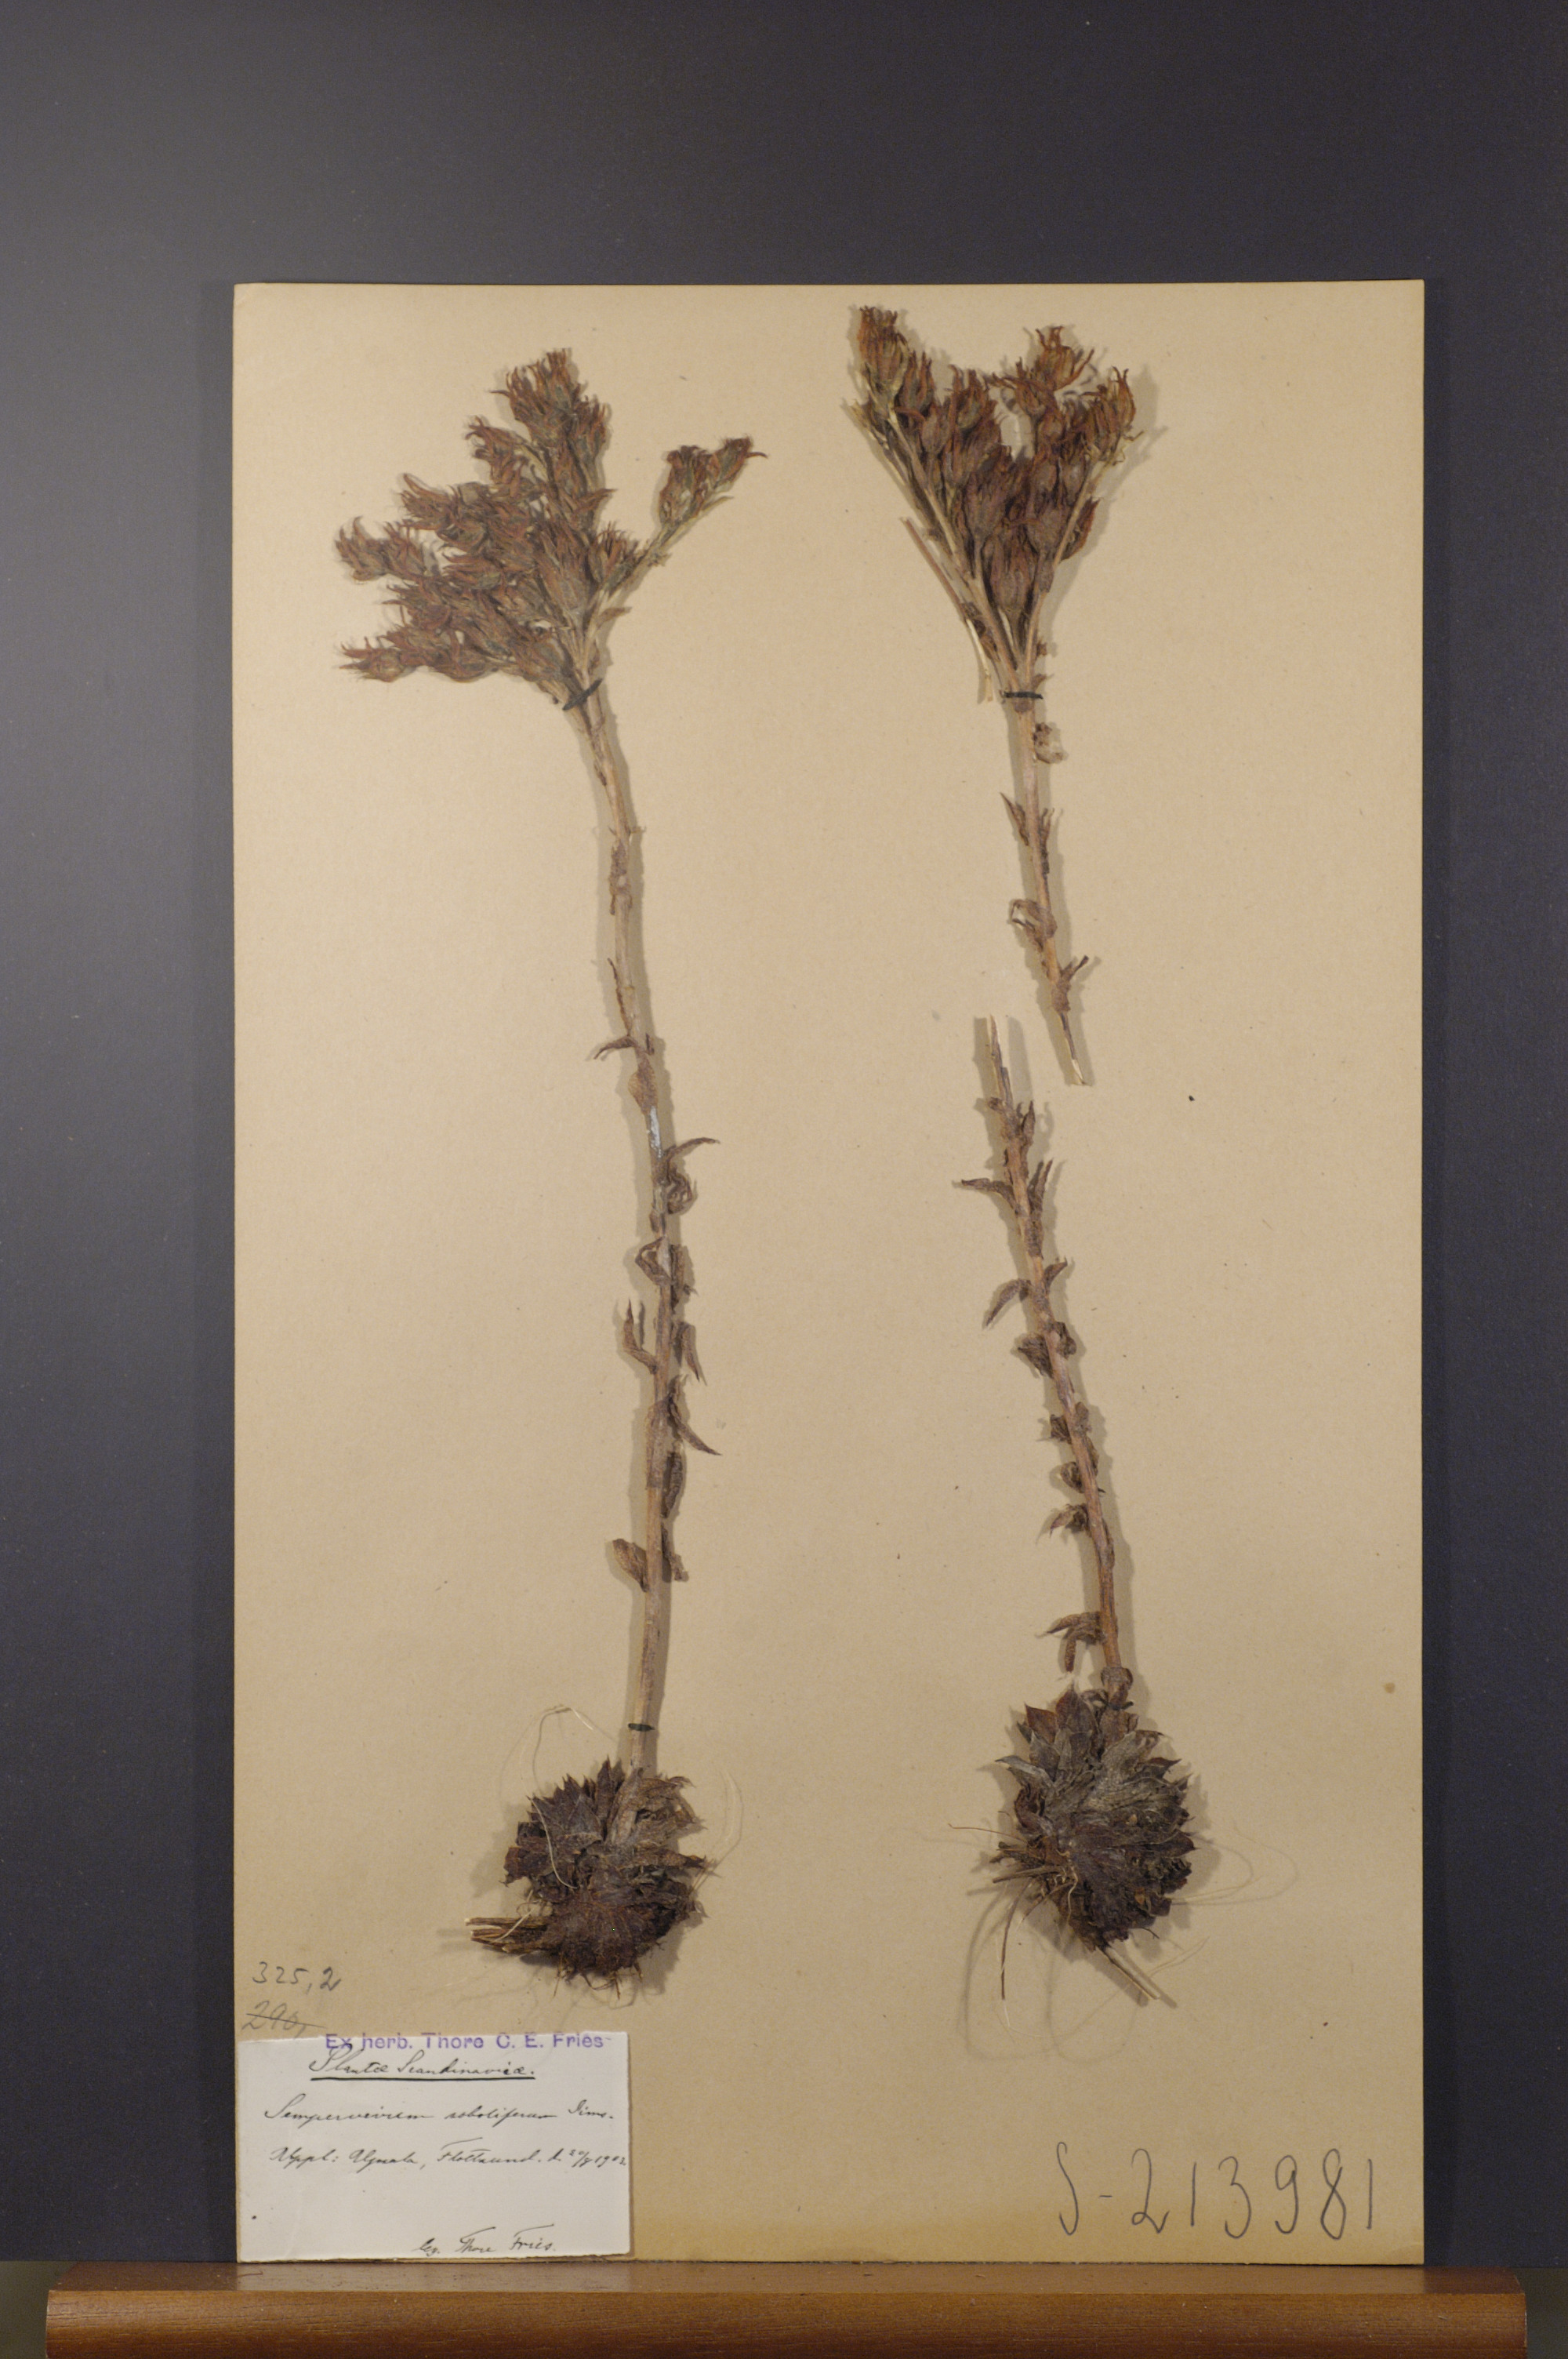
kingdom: Plantae
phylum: Tracheophyta
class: Magnoliopsida
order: Saxifragales
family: Crassulaceae
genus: Sempervivum
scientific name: Sempervivum globiferum
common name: Rolling hen-and-chicks
